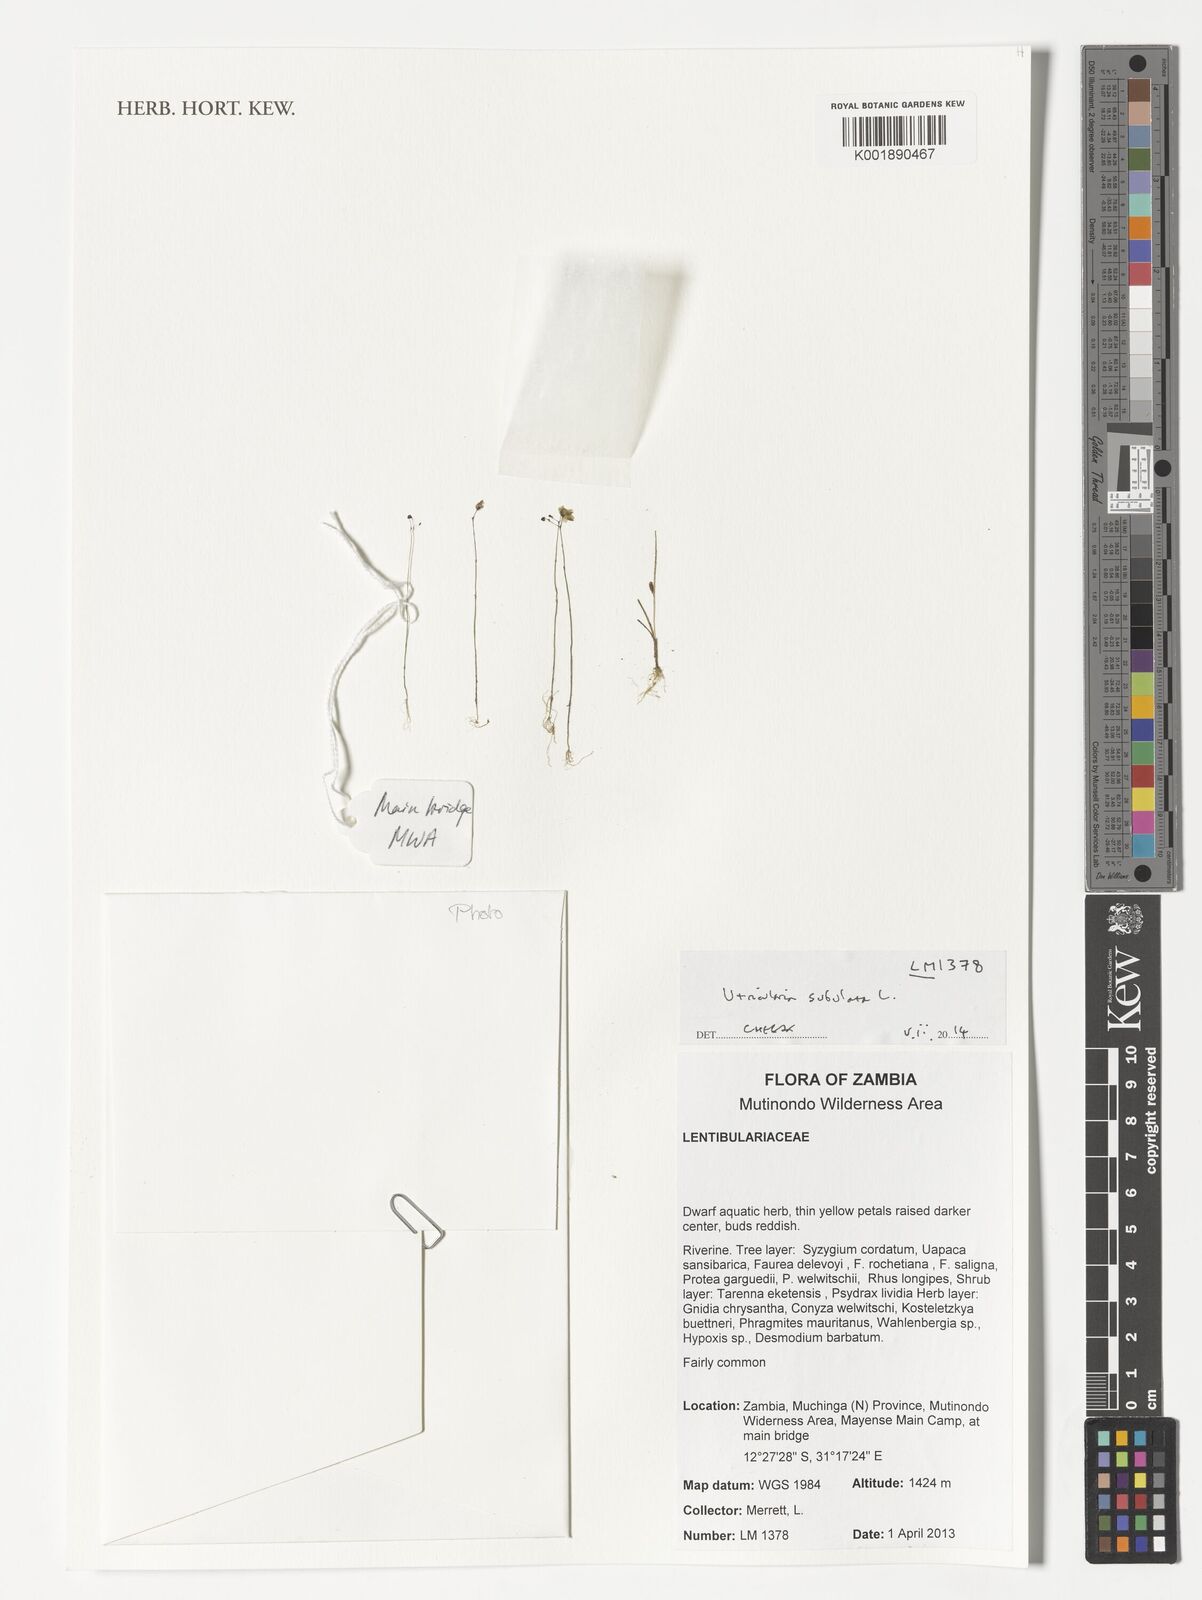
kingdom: Plantae
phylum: Tracheophyta
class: Magnoliopsida
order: Lamiales
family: Lentibulariaceae
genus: Utricularia
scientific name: Utricularia subulata
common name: Tiny bladderwort
